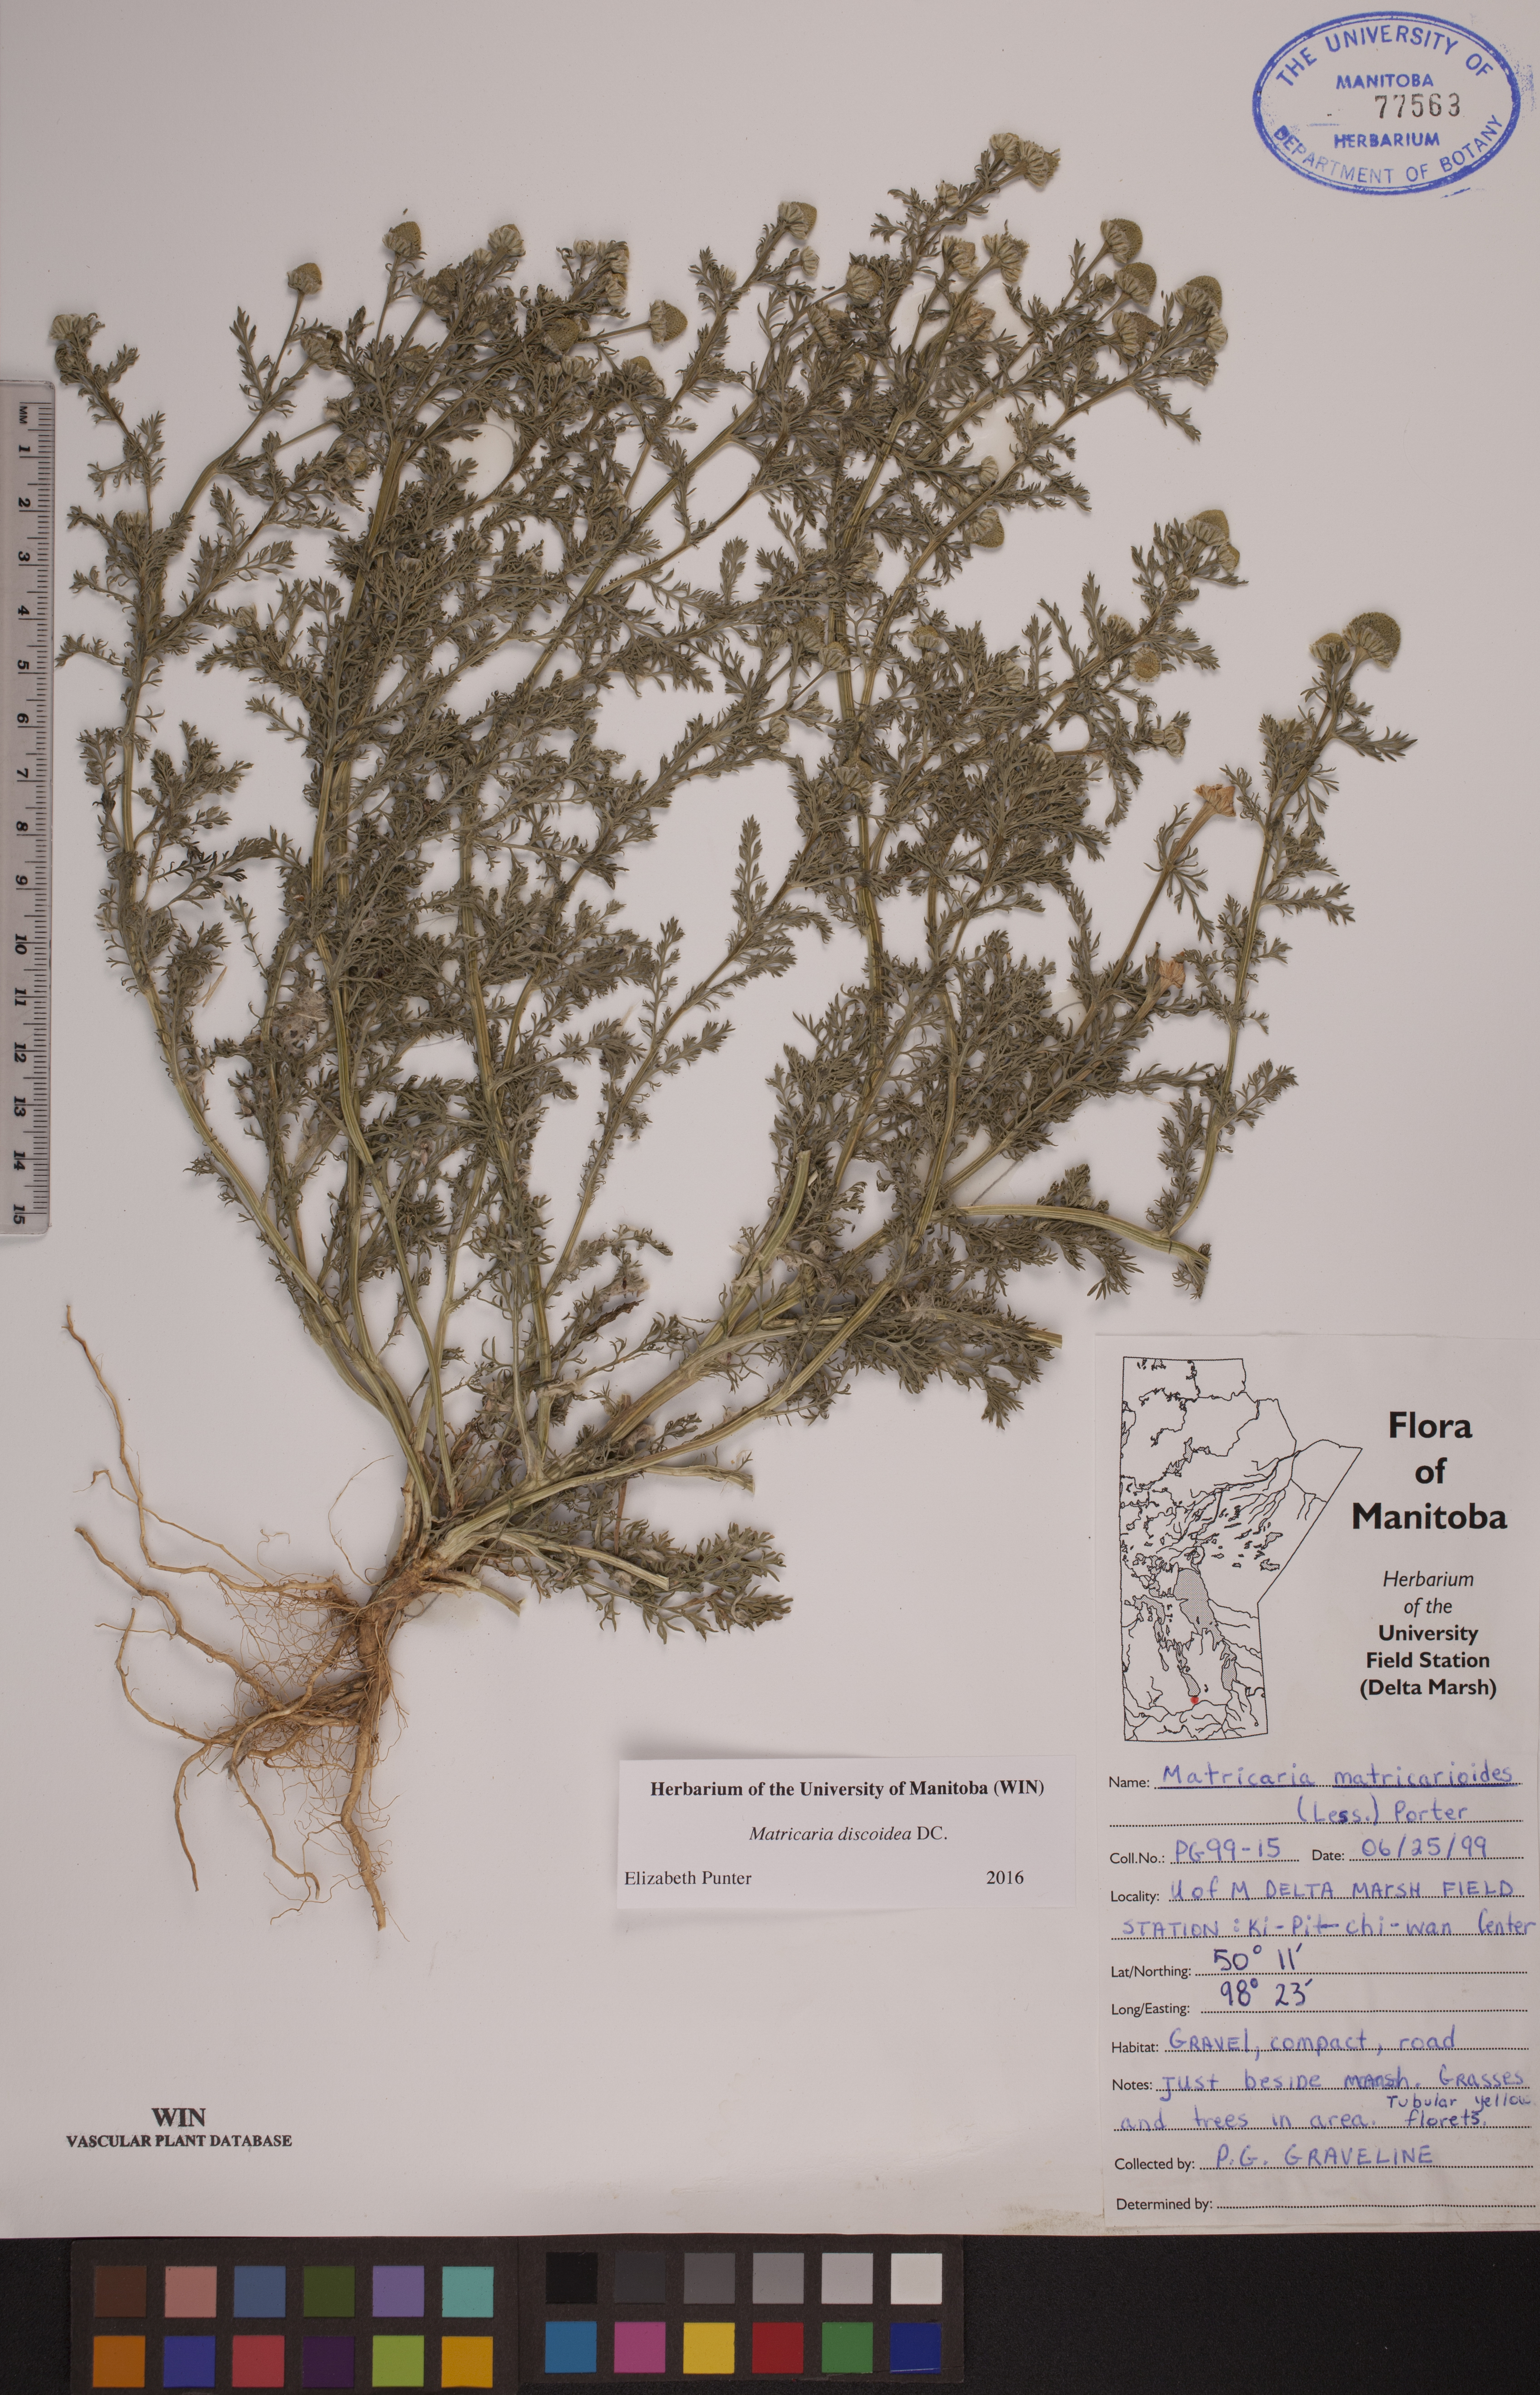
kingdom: Plantae
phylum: Tracheophyta
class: Magnoliopsida
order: Asterales
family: Asteraceae
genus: Matricaria
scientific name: Matricaria discoidea
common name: Disc mayweed
